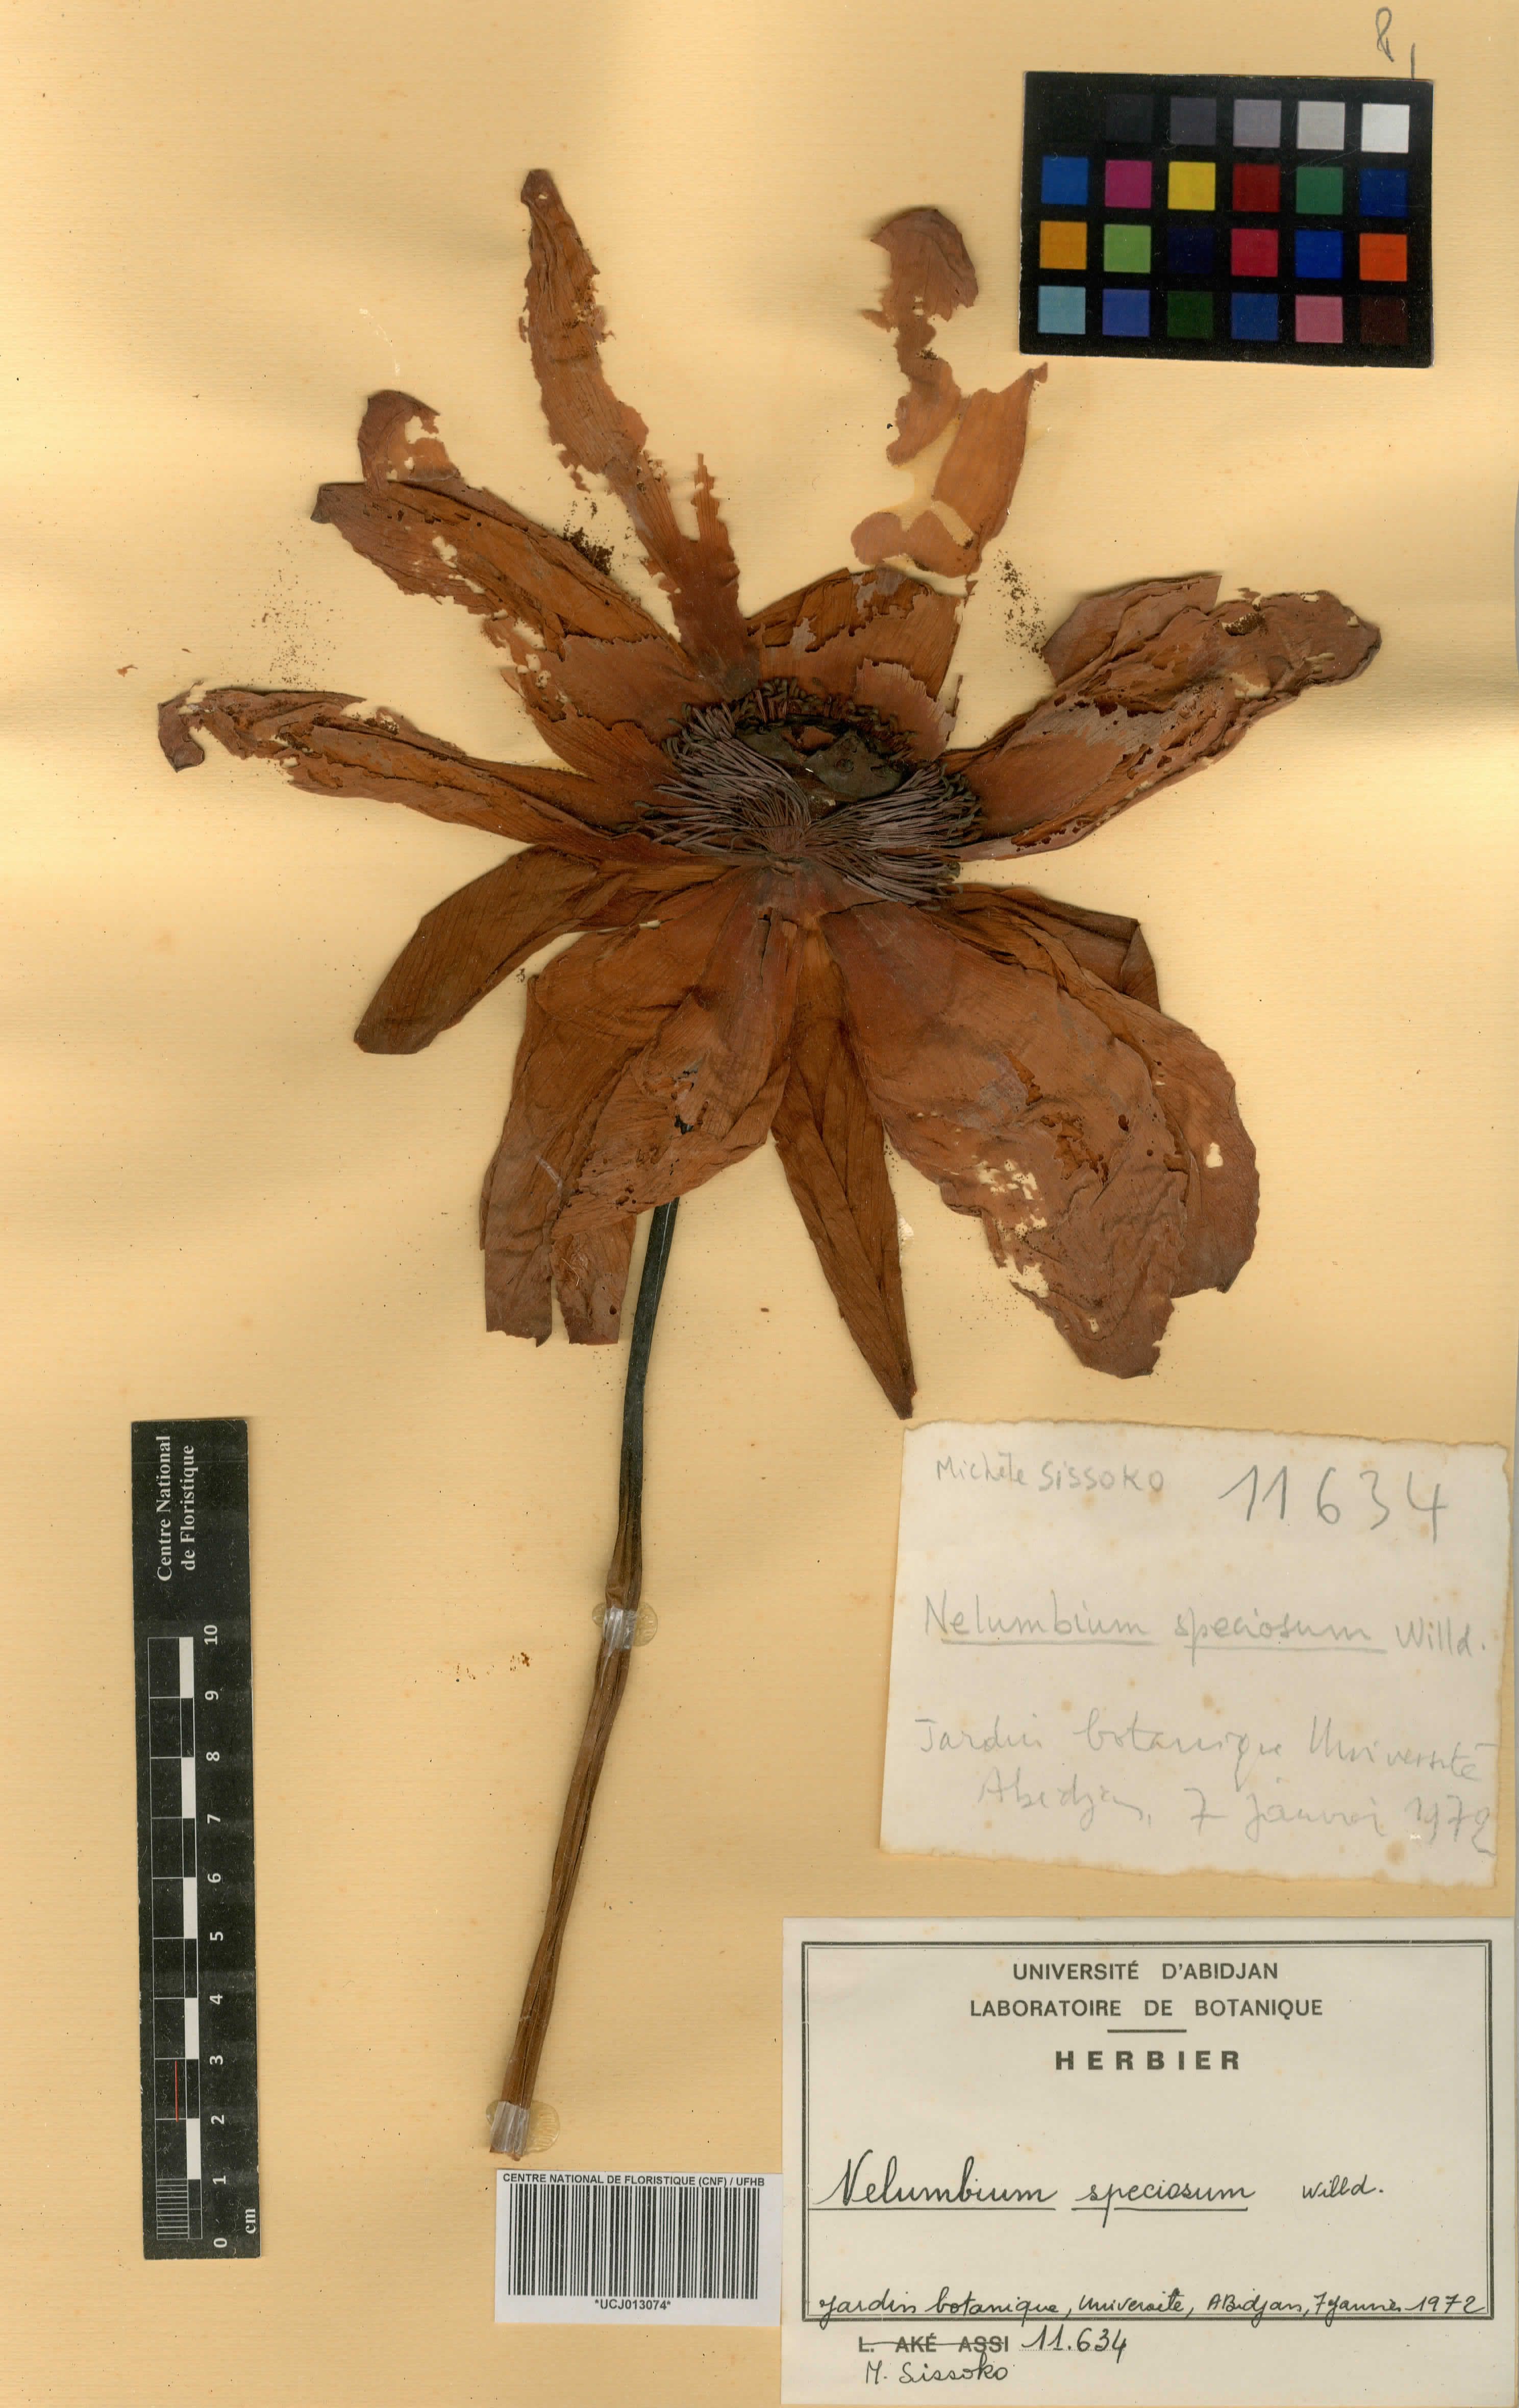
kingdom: Plantae
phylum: Tracheophyta
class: Magnoliopsida
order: Proteales
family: Nelumbonaceae
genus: Nelumbo
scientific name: Nelumbo nucifera
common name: Sacred lotus
